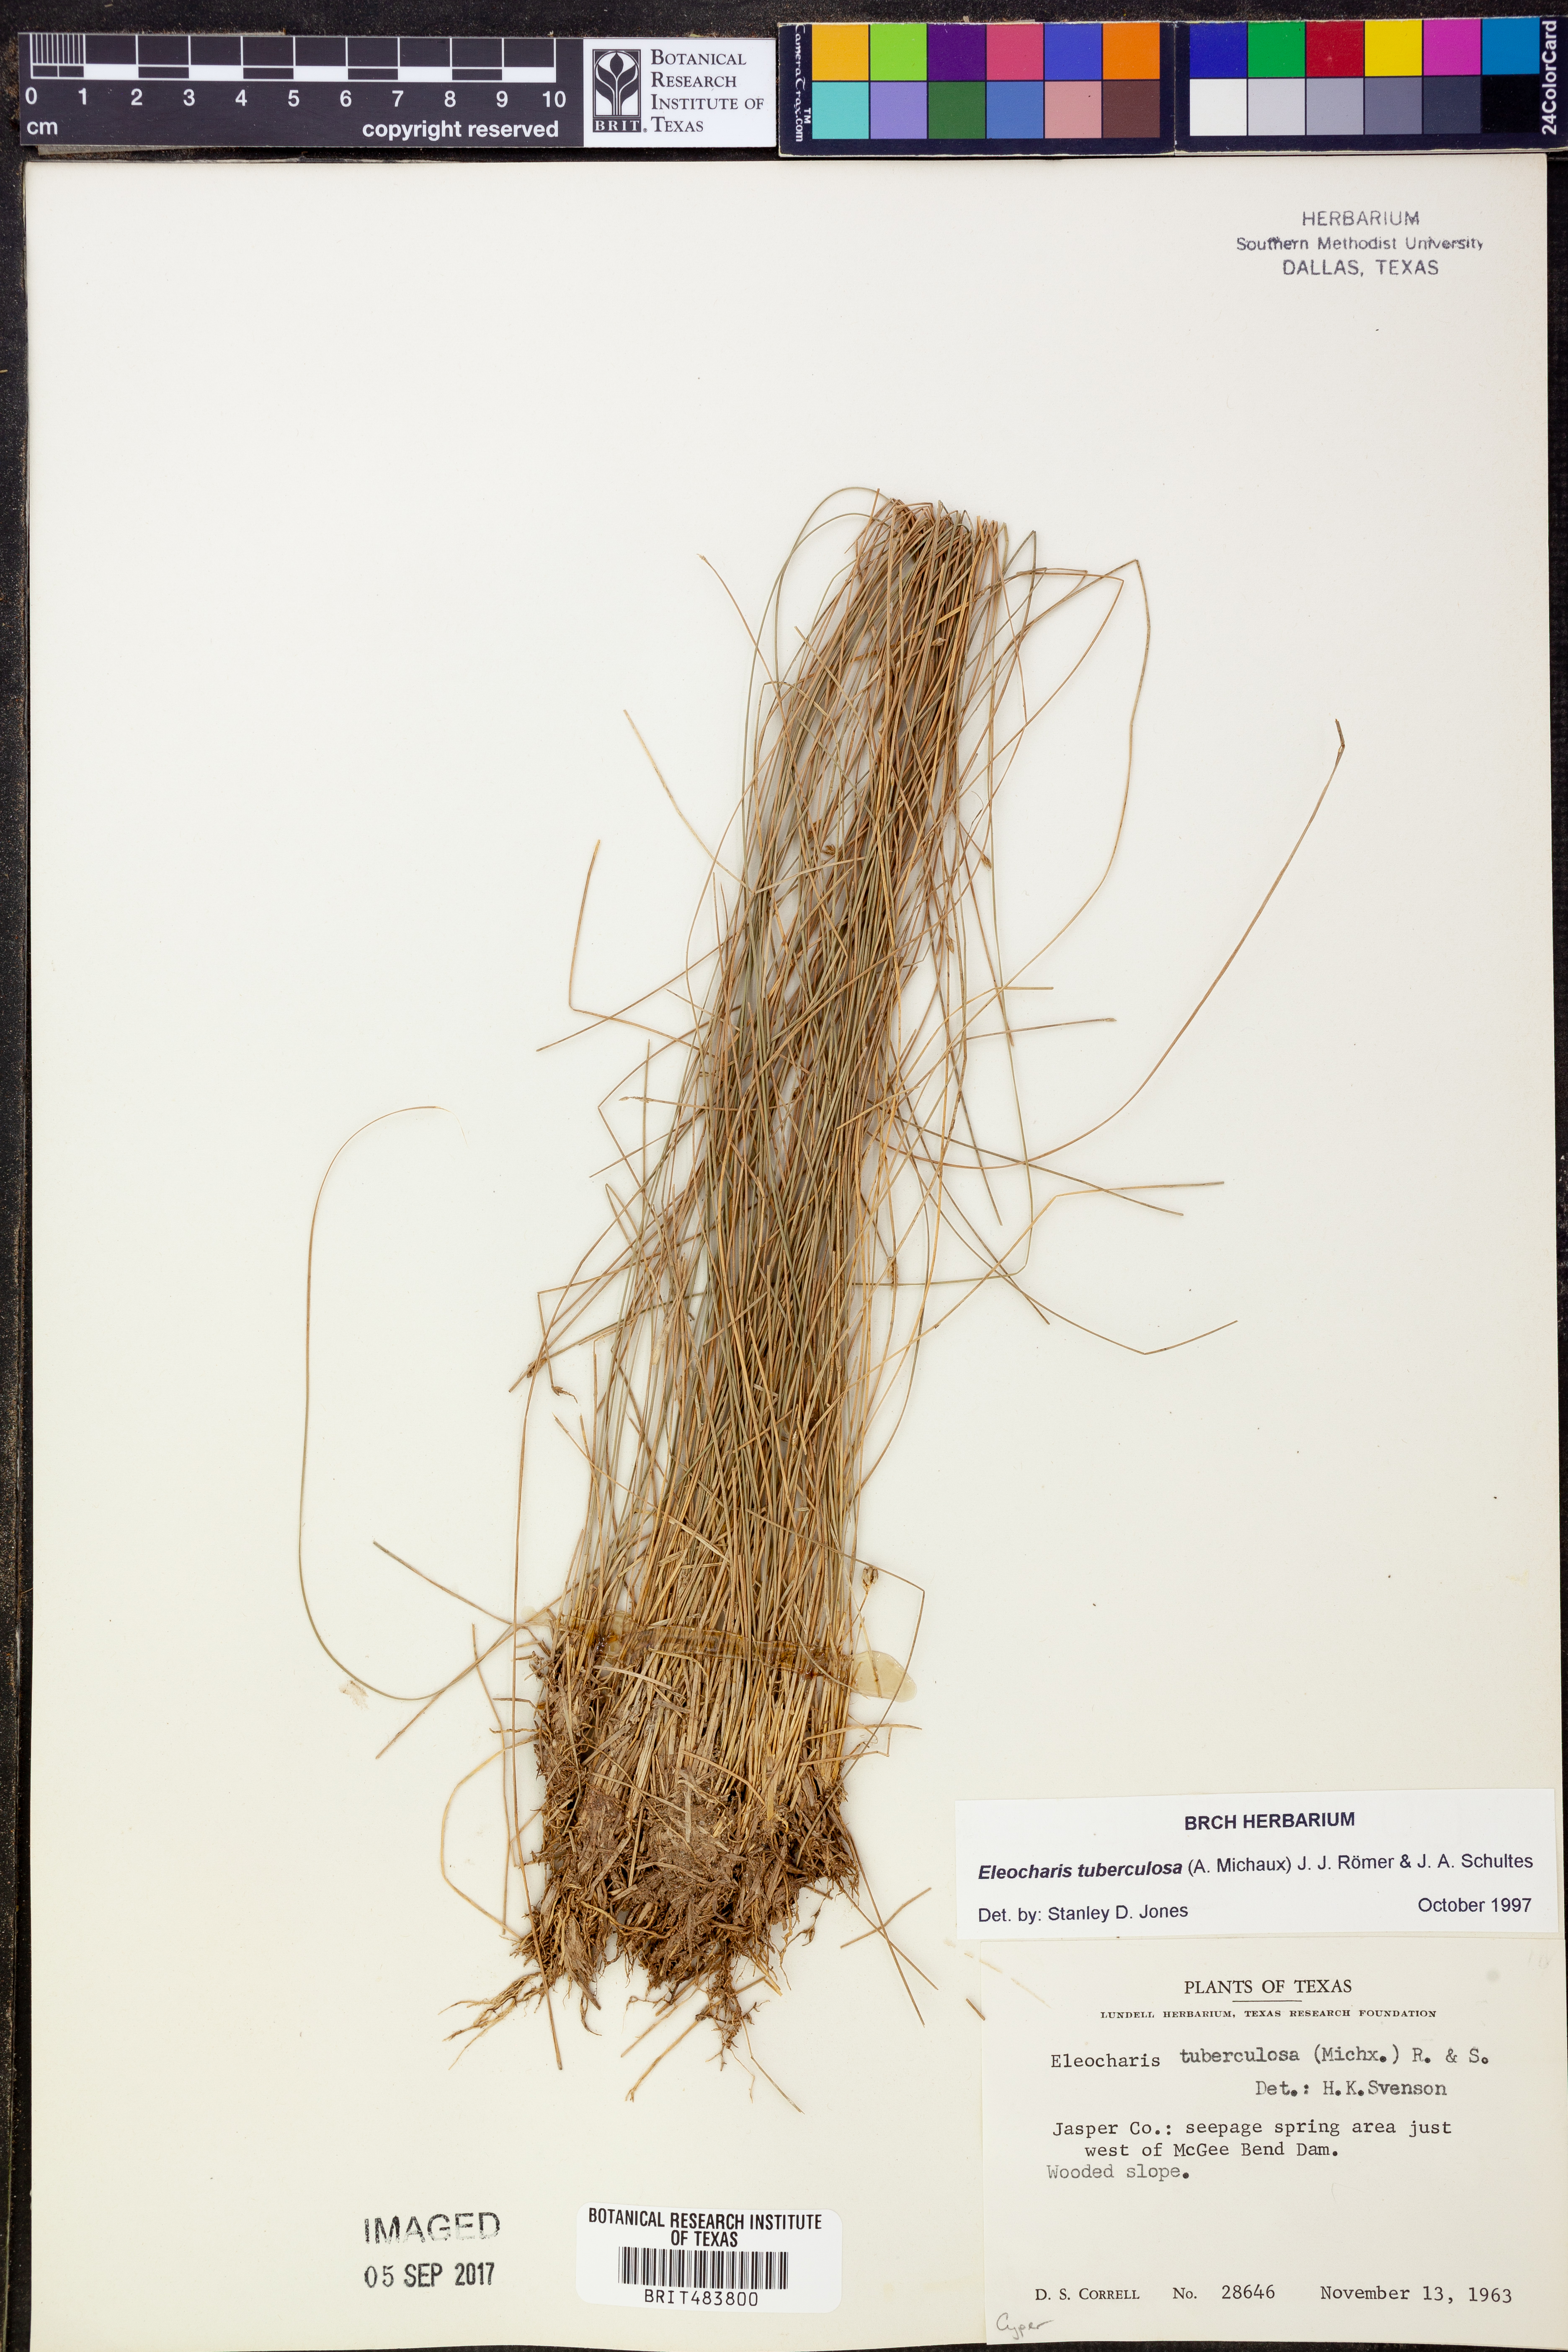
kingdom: Plantae
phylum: Tracheophyta
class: Liliopsida
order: Poales
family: Cyperaceae
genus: Eleocharis
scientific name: Eleocharis tuberculosa
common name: Cone-cup spikerush
